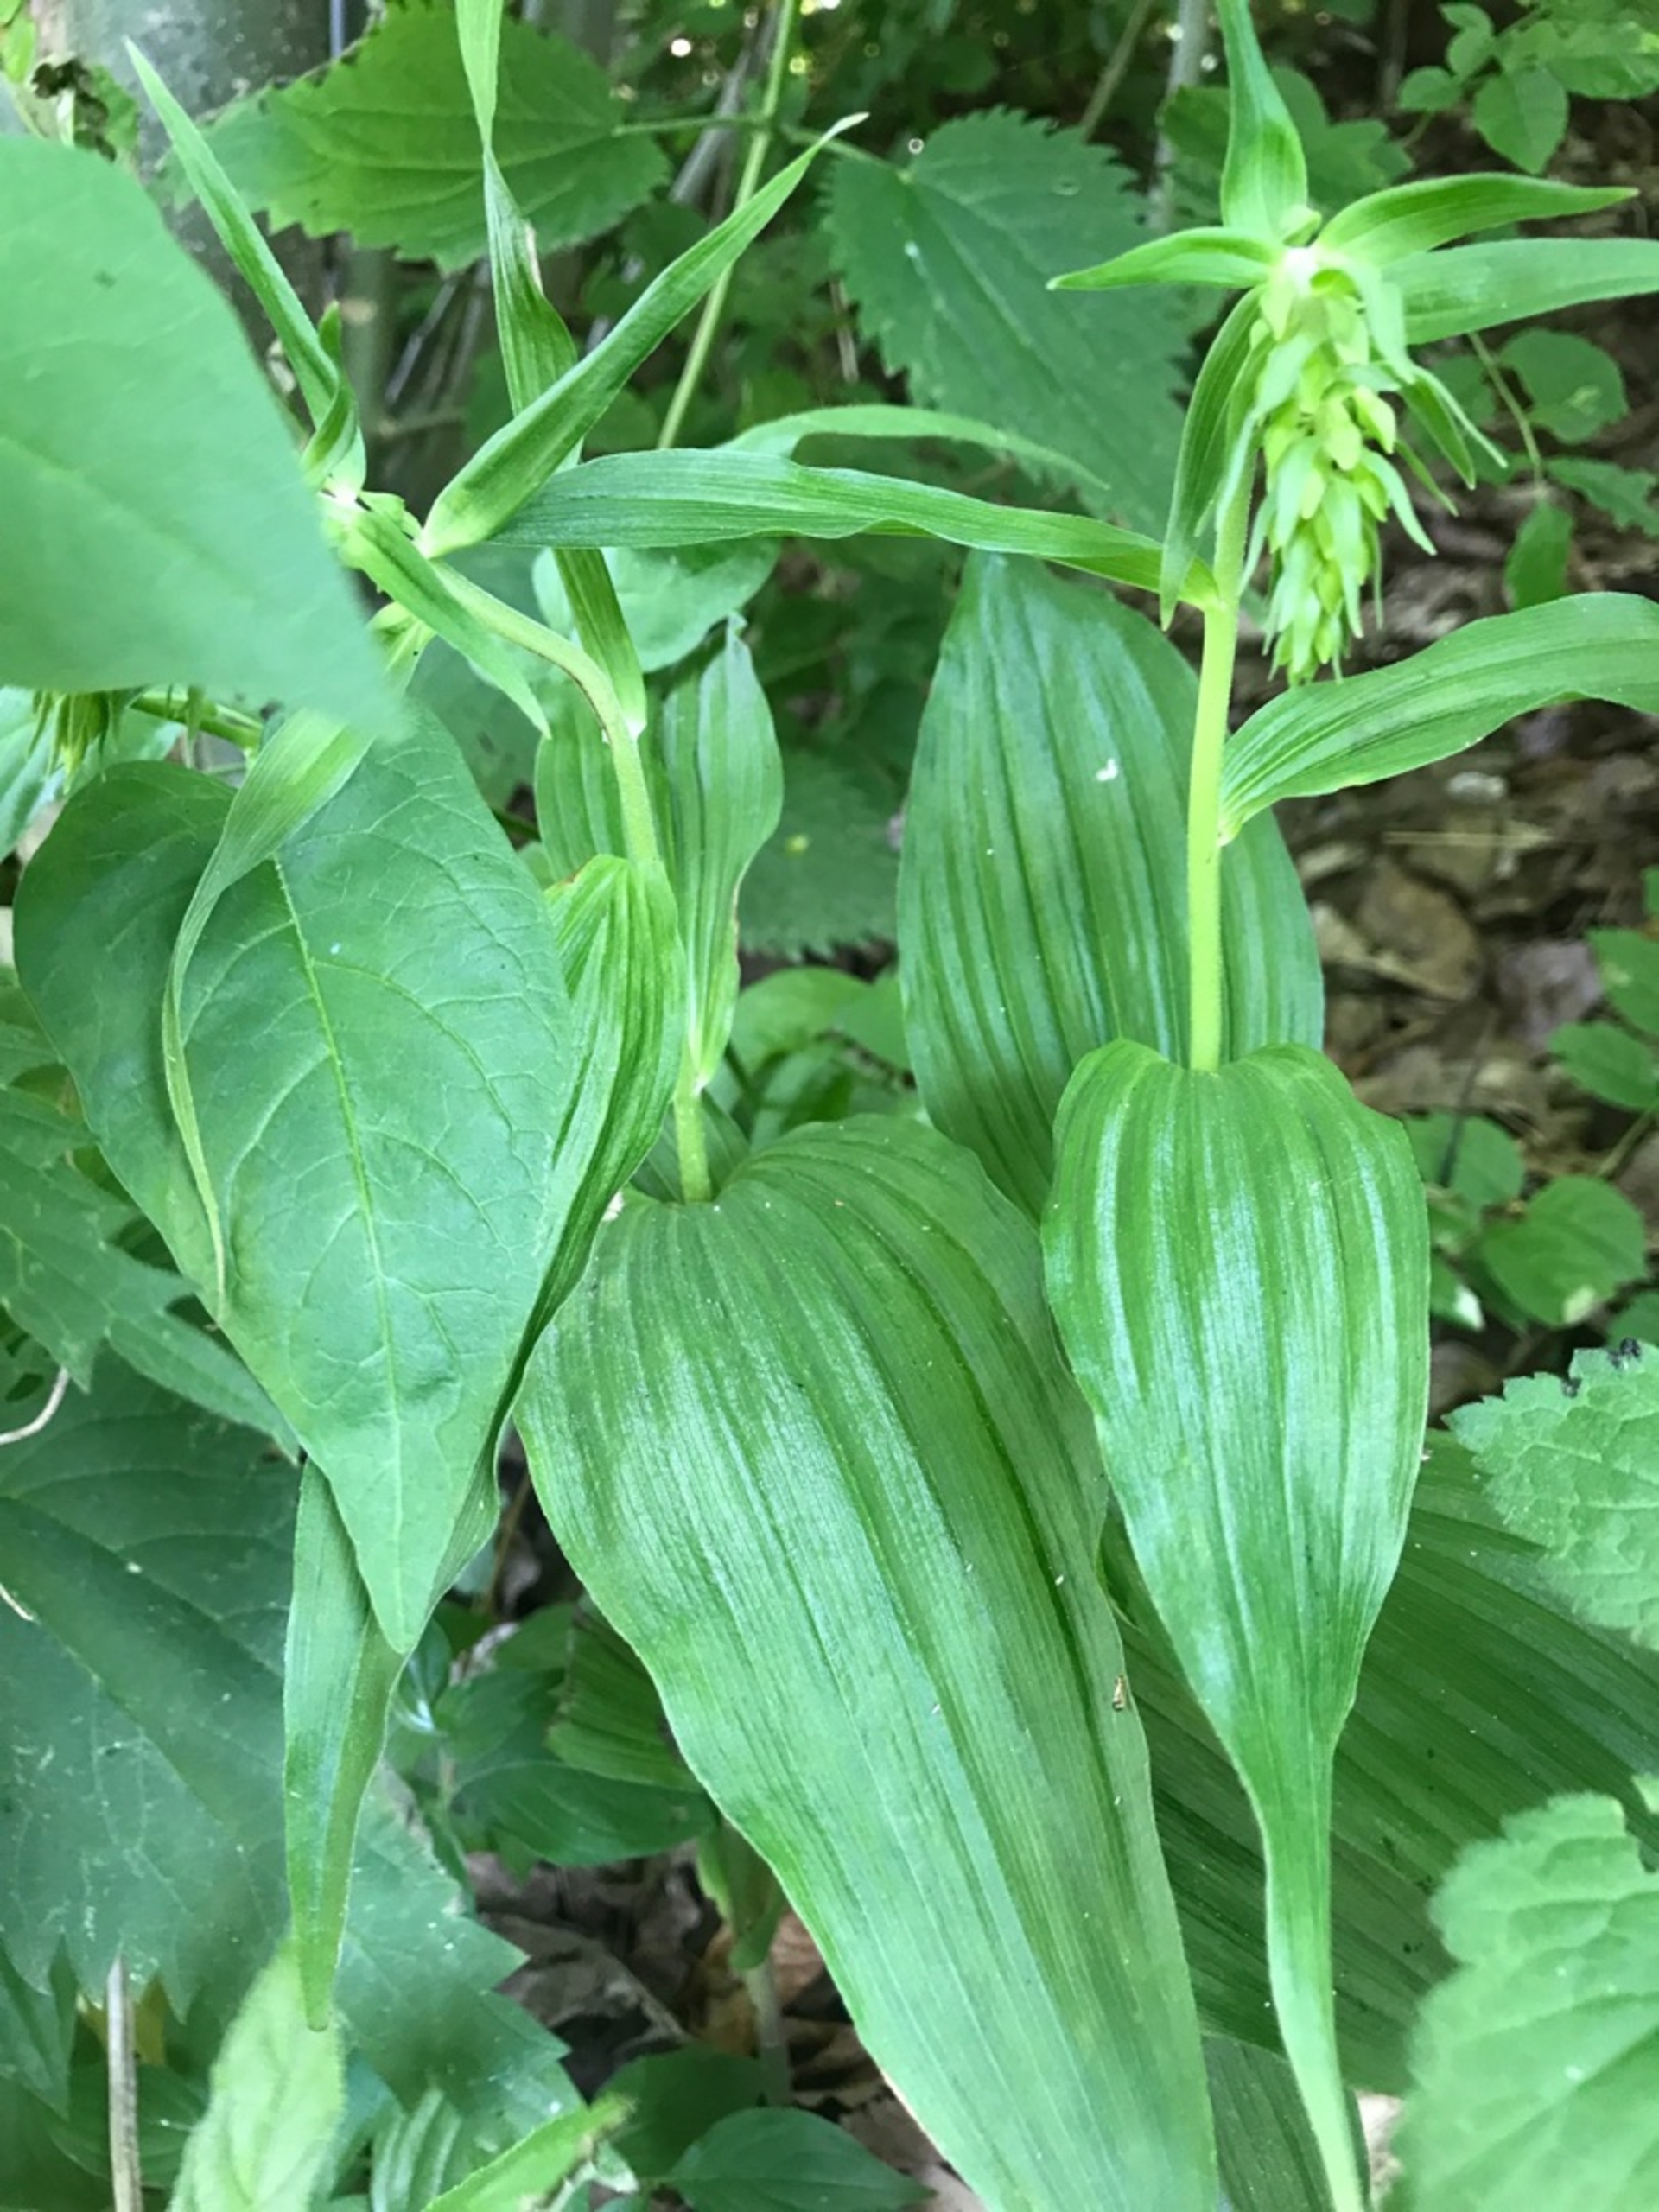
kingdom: Plantae
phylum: Tracheophyta
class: Liliopsida
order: Asparagales
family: Orchidaceae
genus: Epipactis
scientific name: Epipactis helleborine
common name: Skov-hullæbe
